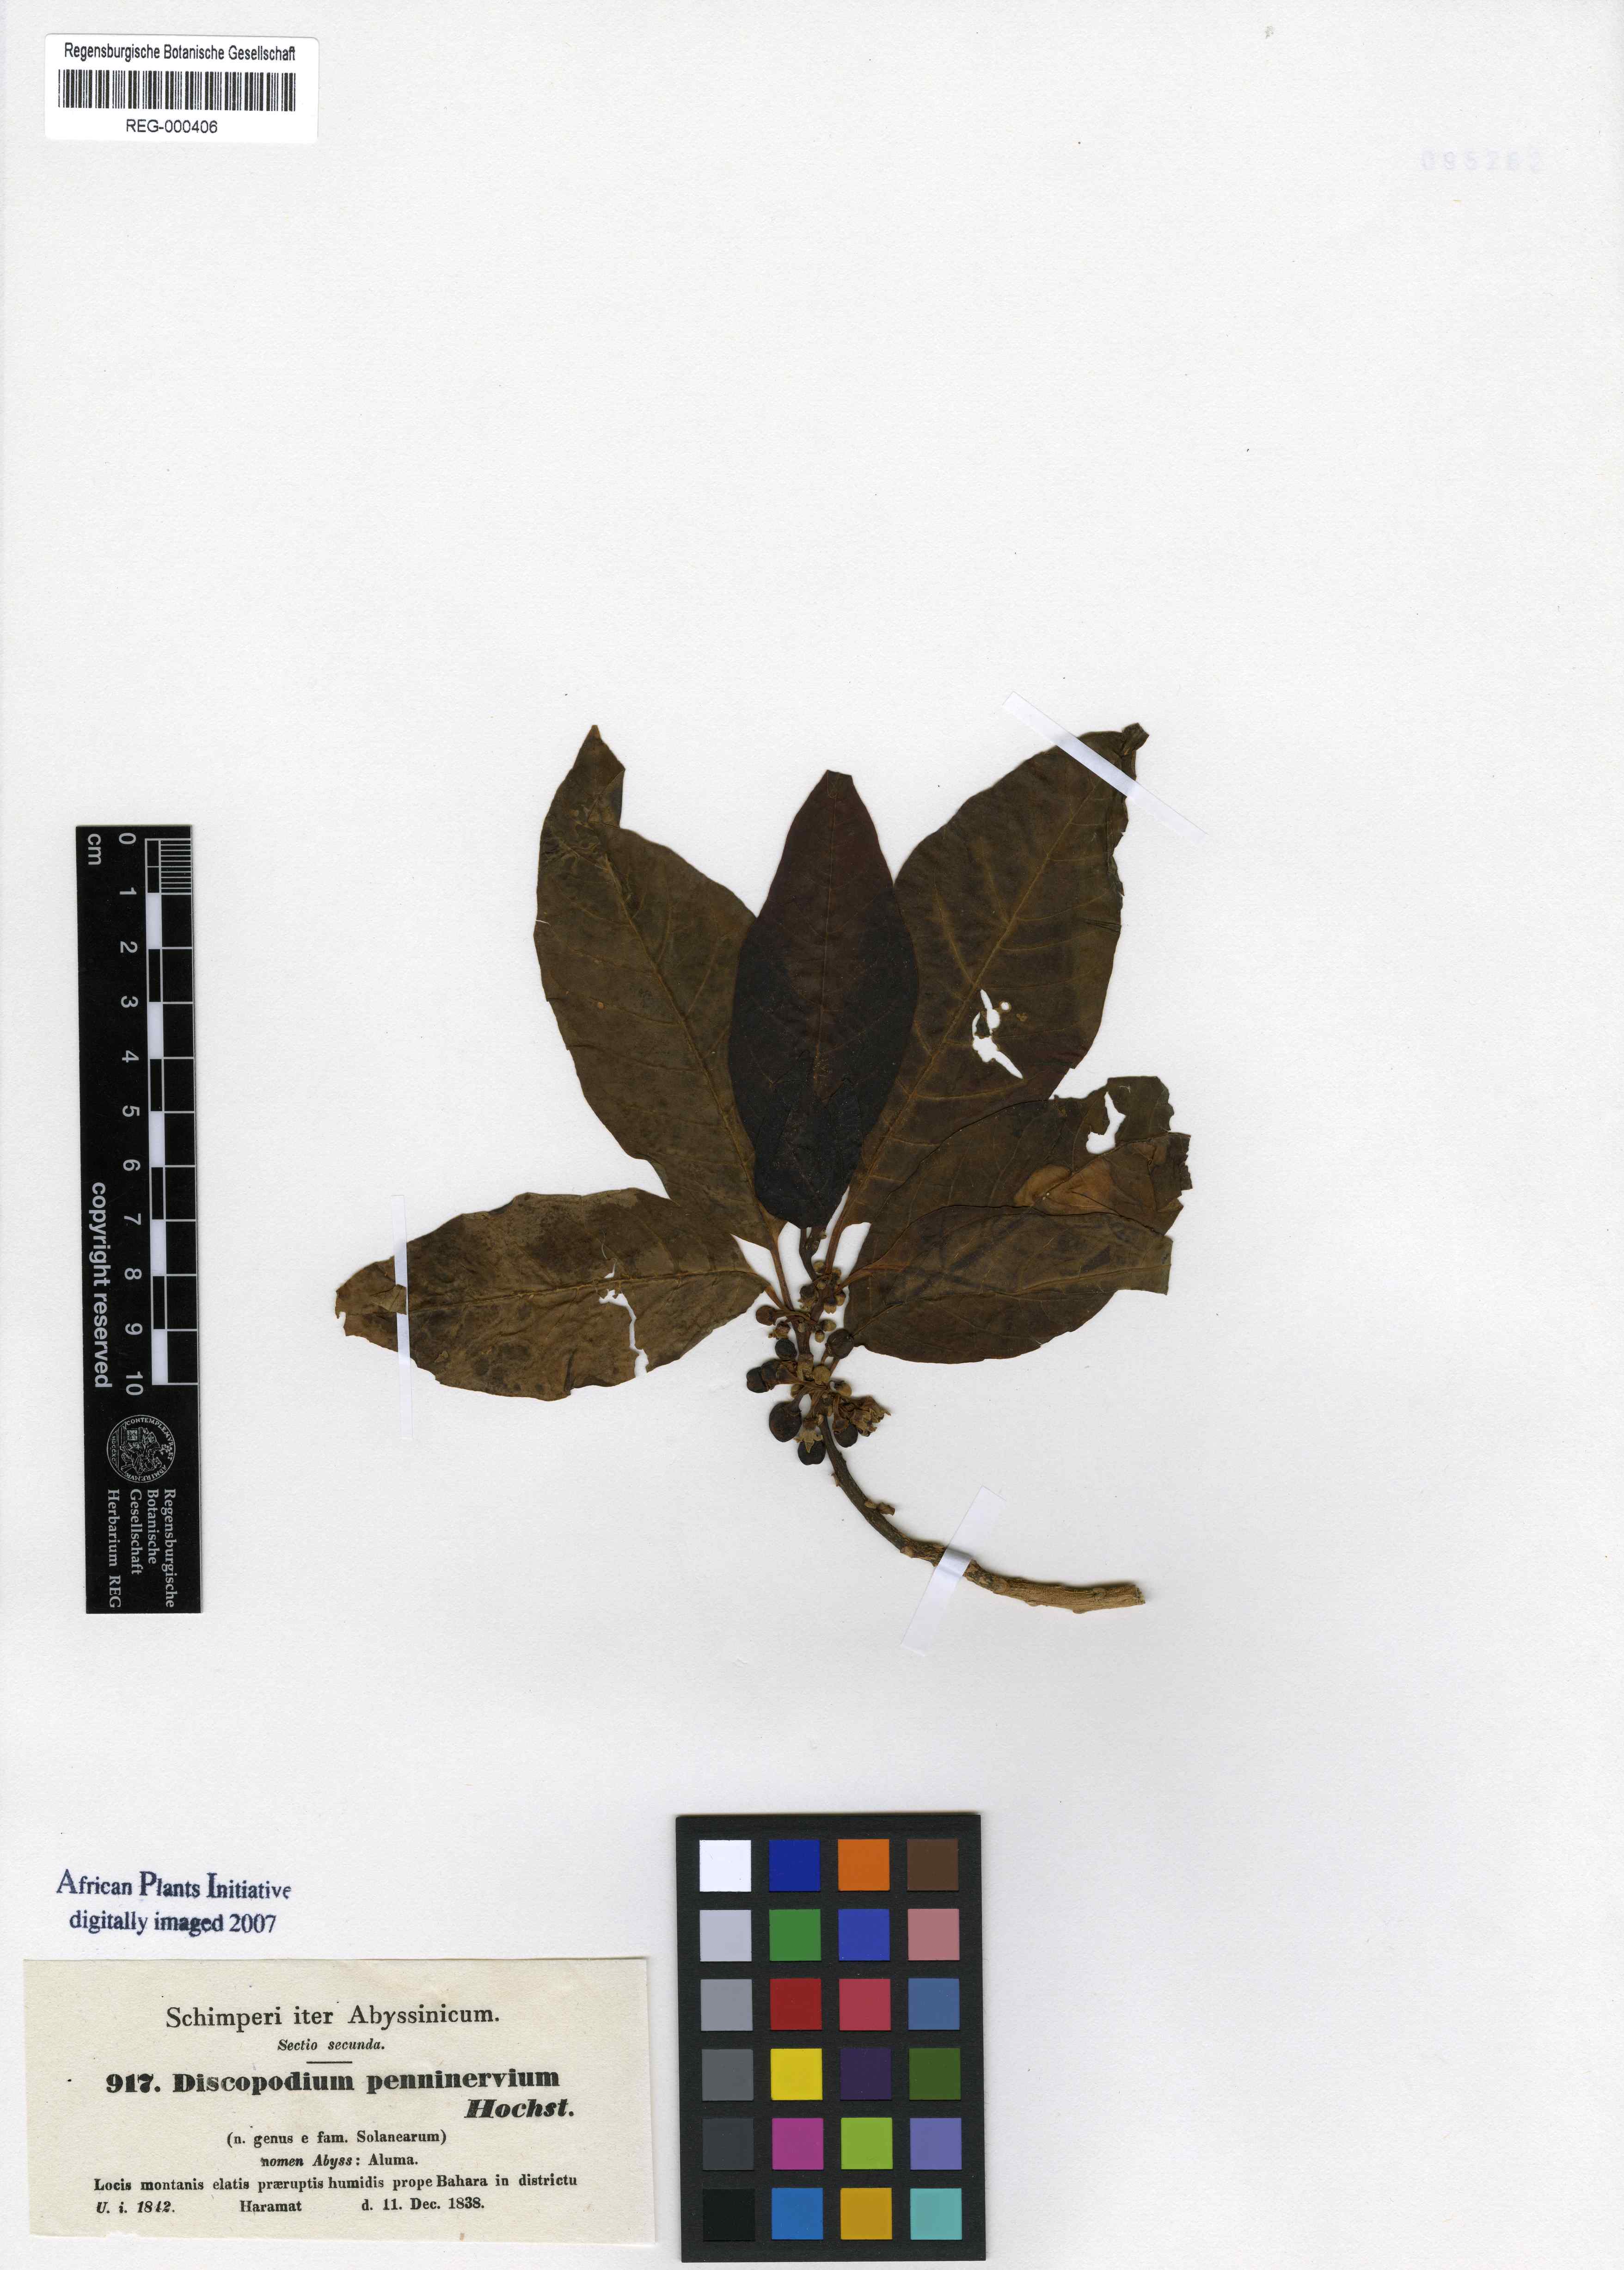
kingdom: Plantae
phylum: Tracheophyta
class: Magnoliopsida
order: Solanales
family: Solanaceae
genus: Discopodium
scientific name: Discopodium penninervium
